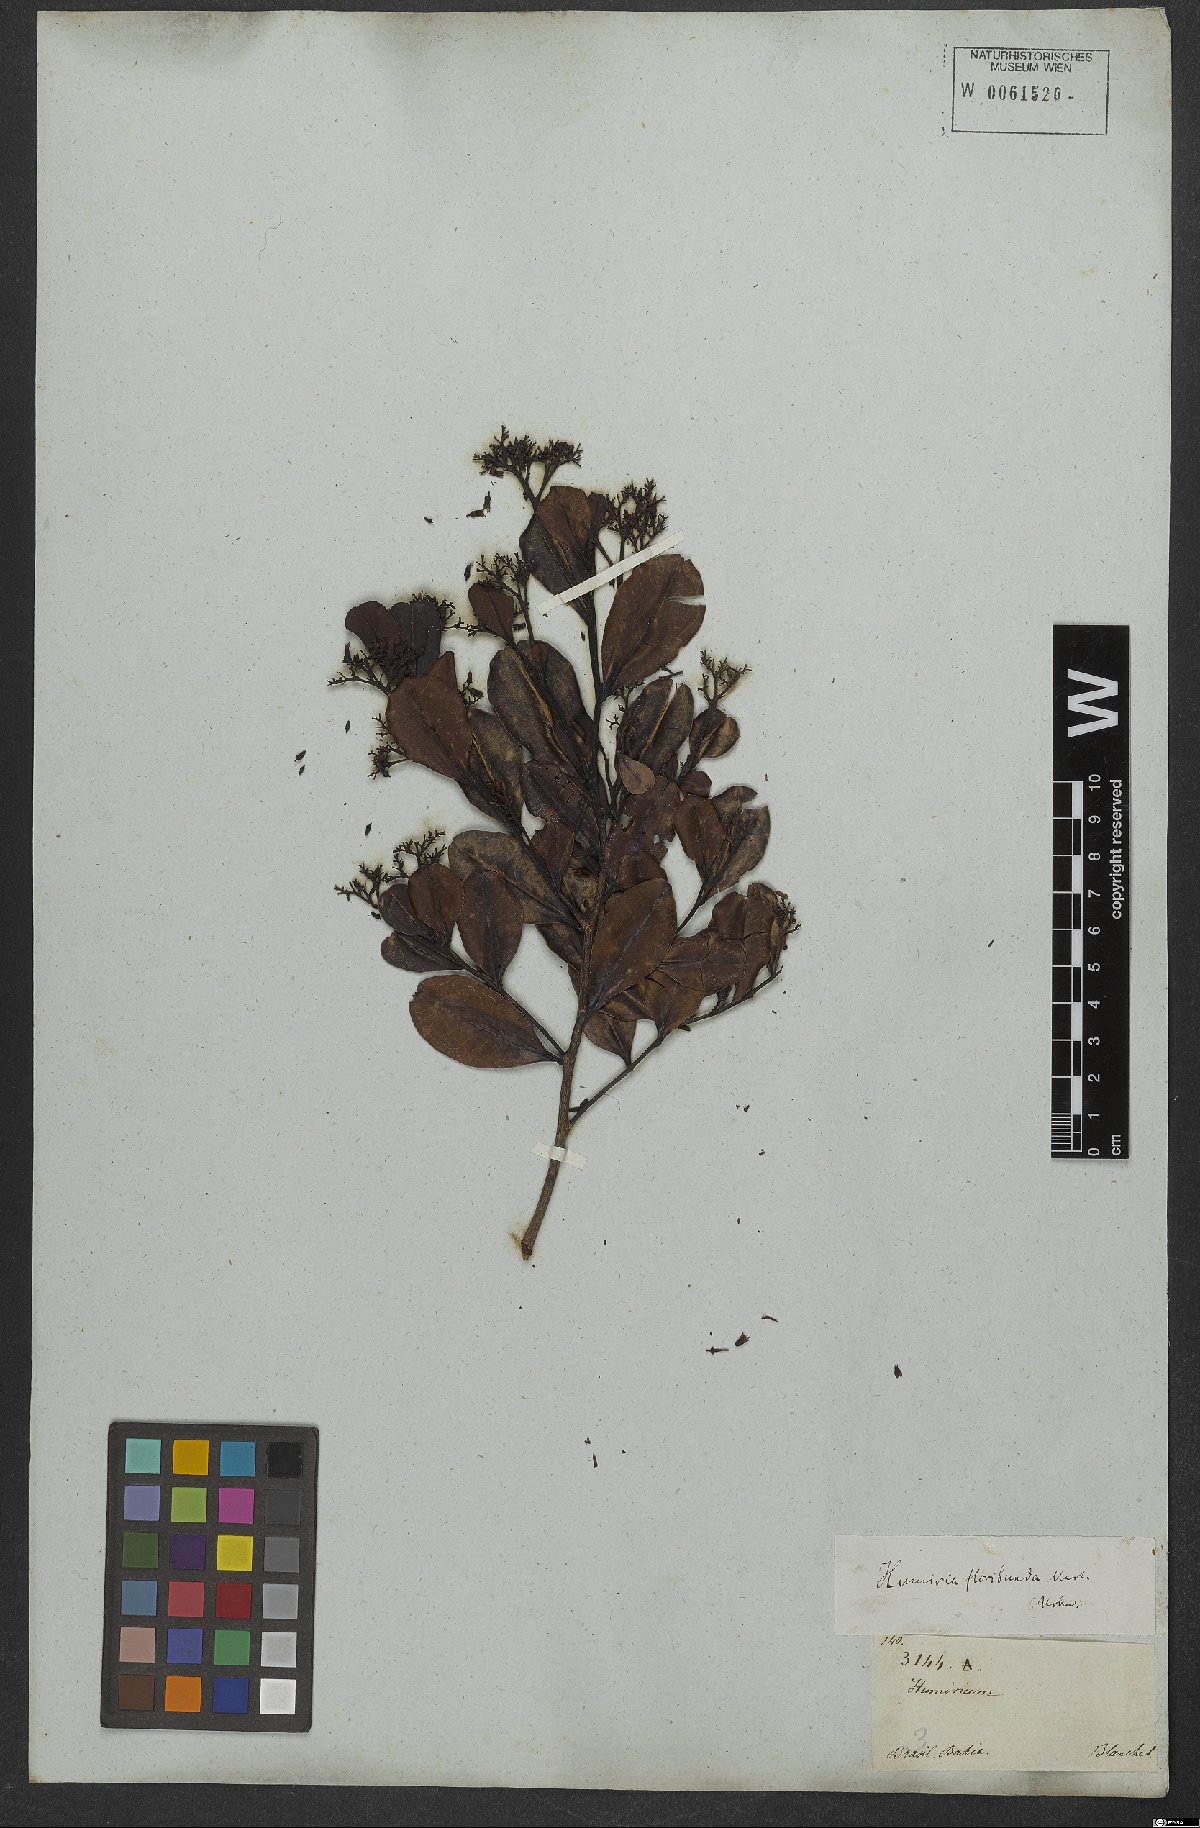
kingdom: Plantae
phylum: Tracheophyta
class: Magnoliopsida
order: Malpighiales
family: Humiriaceae
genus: Humiria
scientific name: Humiria
